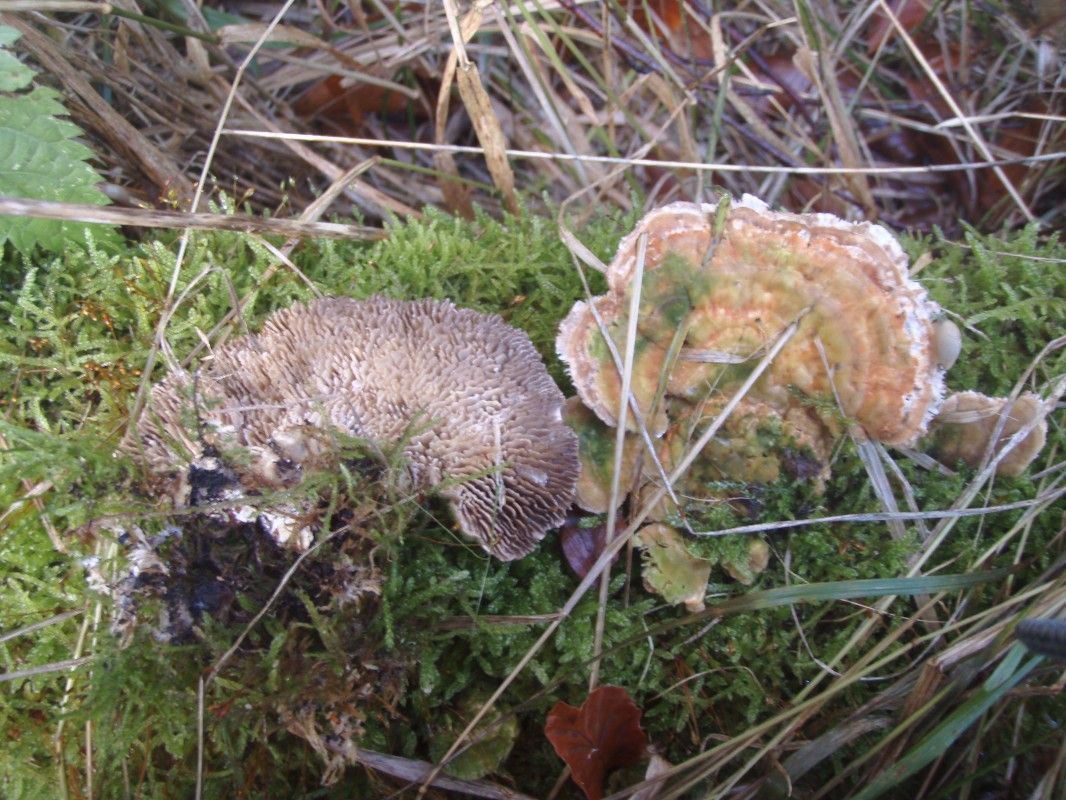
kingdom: Fungi
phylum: Basidiomycota
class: Agaricomycetes
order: Polyporales
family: Polyporaceae
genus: Lenzites
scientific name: Lenzites betulinus
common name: birke-læderporesvamp
